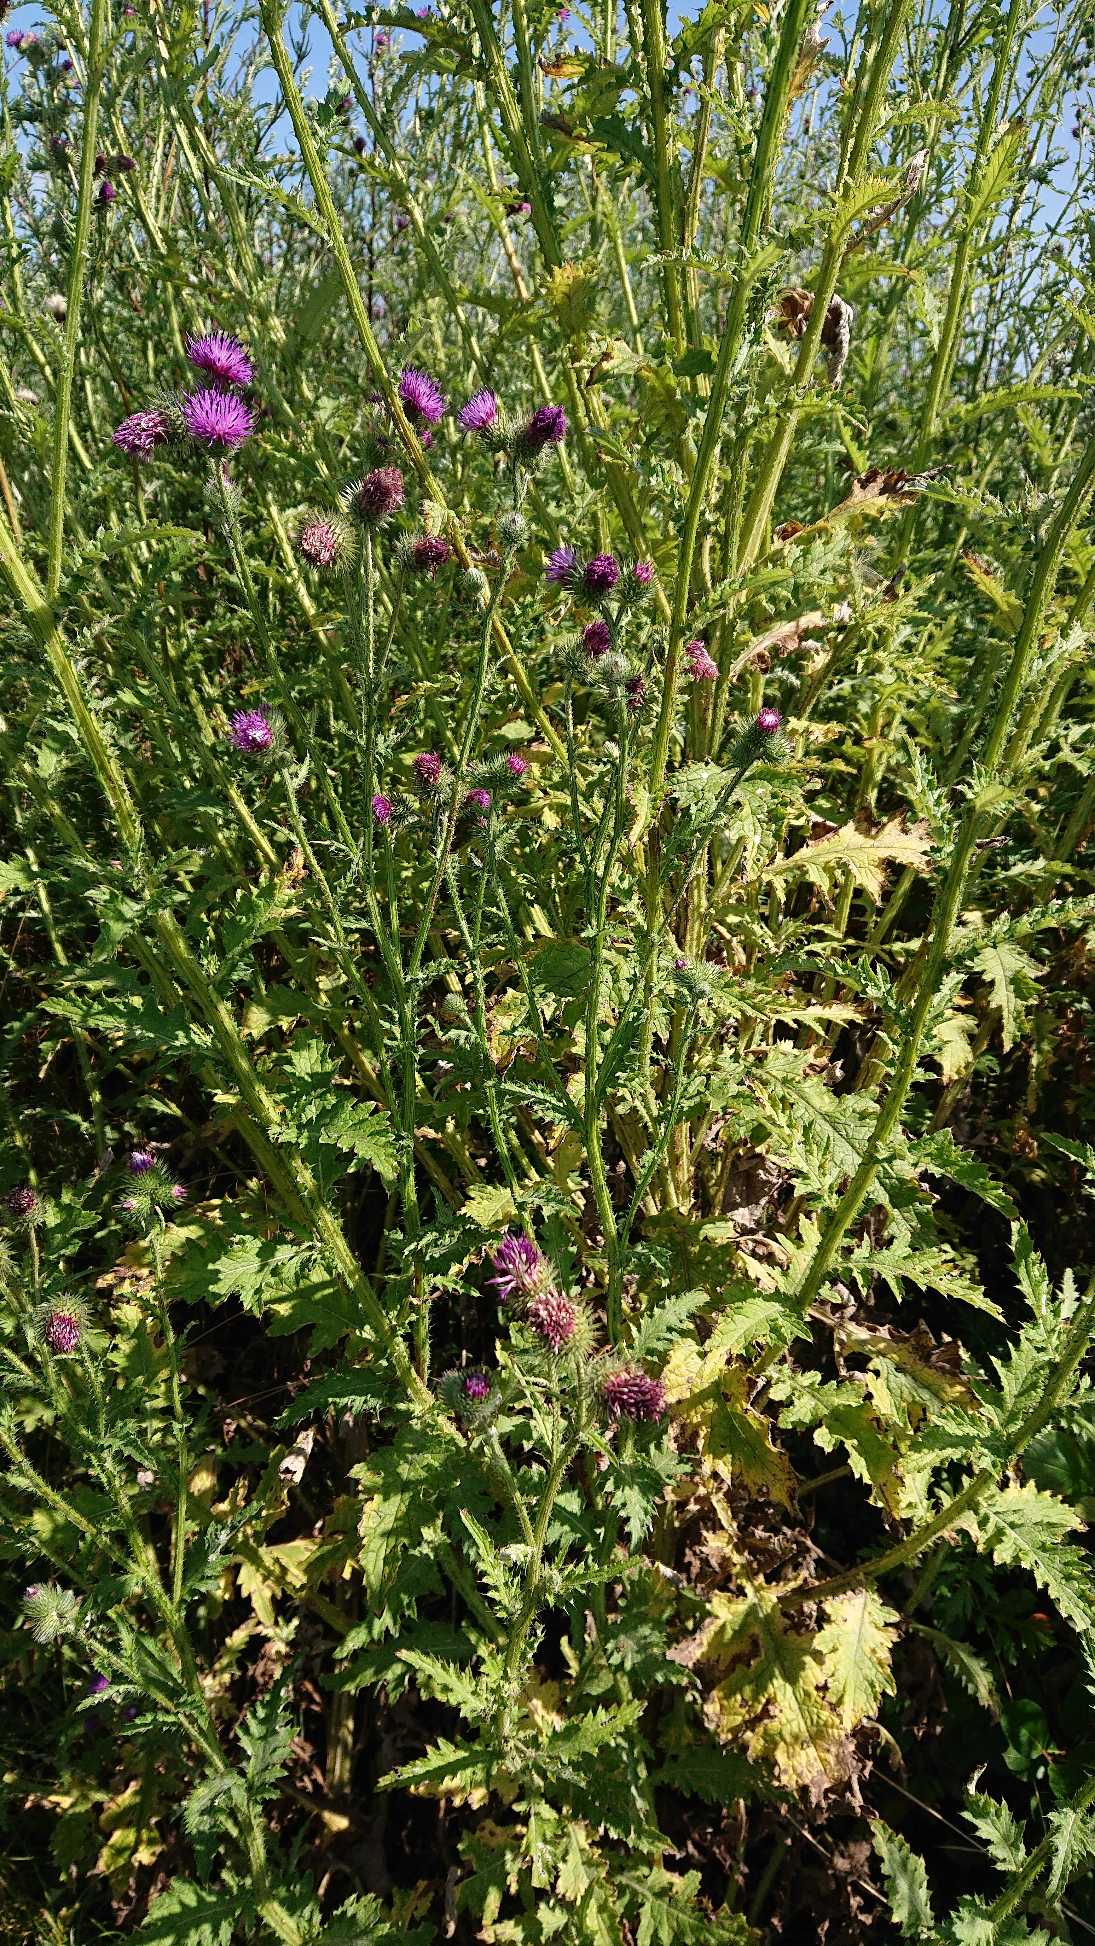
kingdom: Plantae
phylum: Tracheophyta
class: Magnoliopsida
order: Asterales
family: Asteraceae
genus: Carduus
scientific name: Carduus crispus
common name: Kruset tidsel
